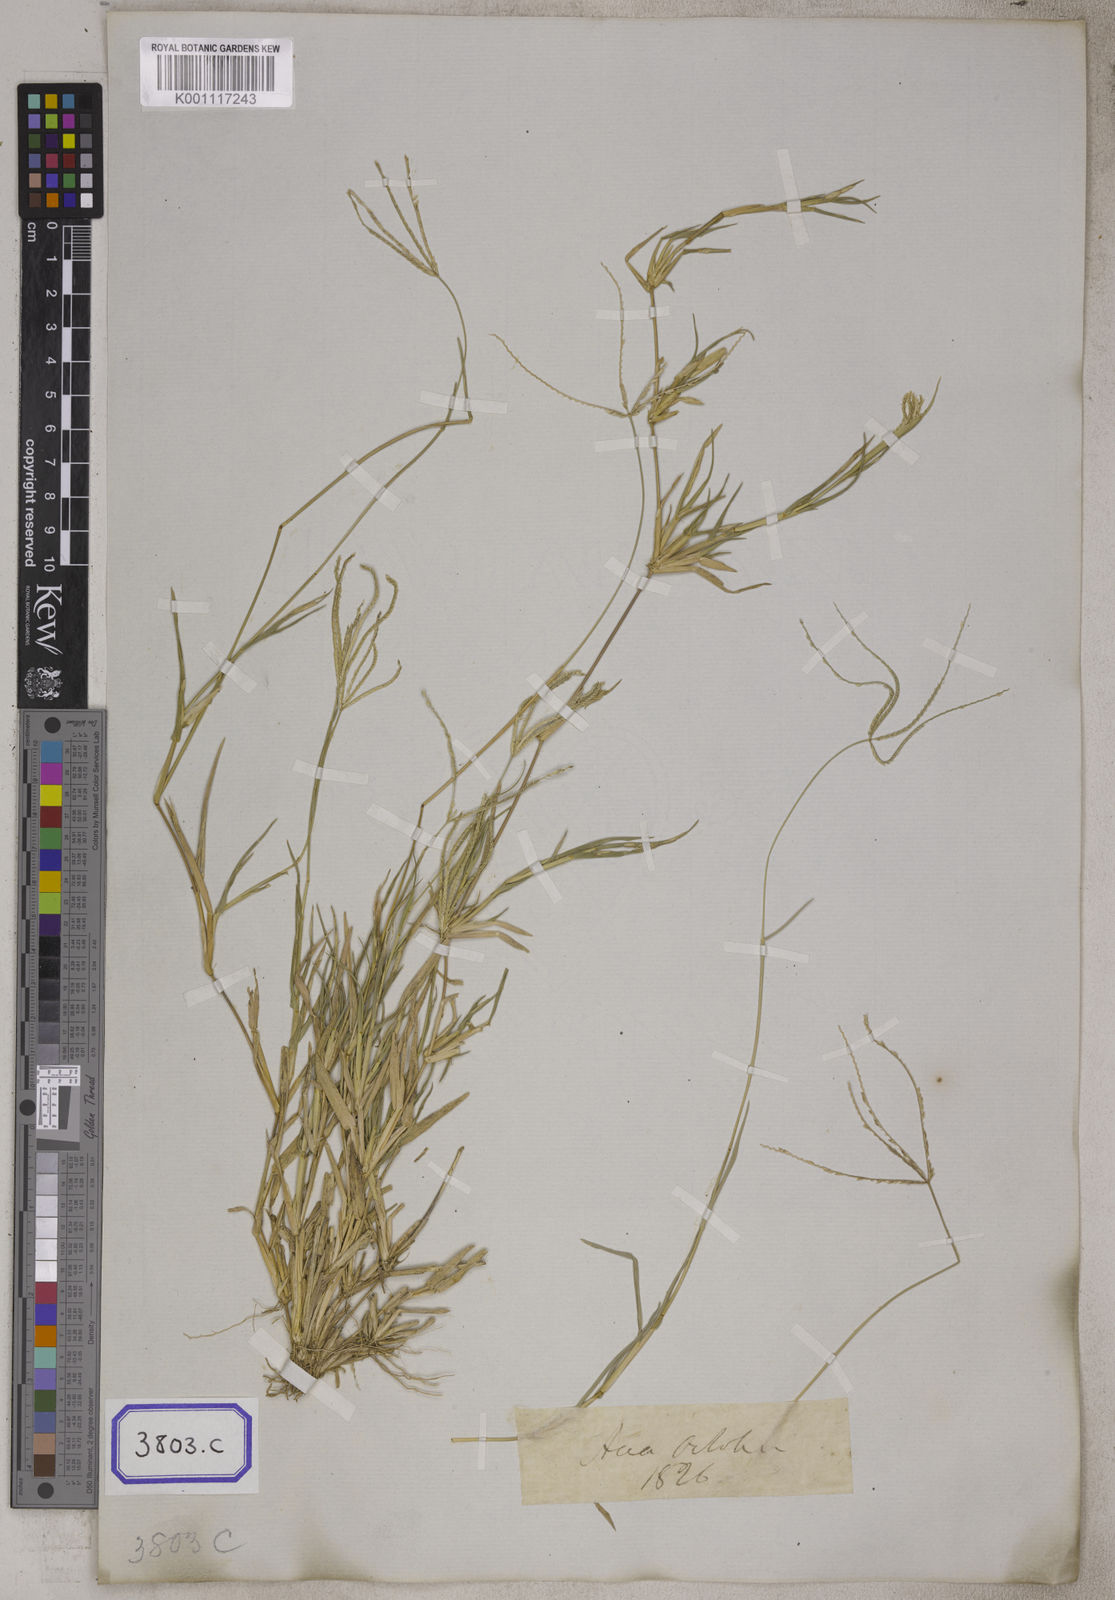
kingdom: Plantae
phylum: Tracheophyta
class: Liliopsida
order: Poales
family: Poaceae
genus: Cynodon
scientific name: Cynodon dactylon
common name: Bermuda grass
